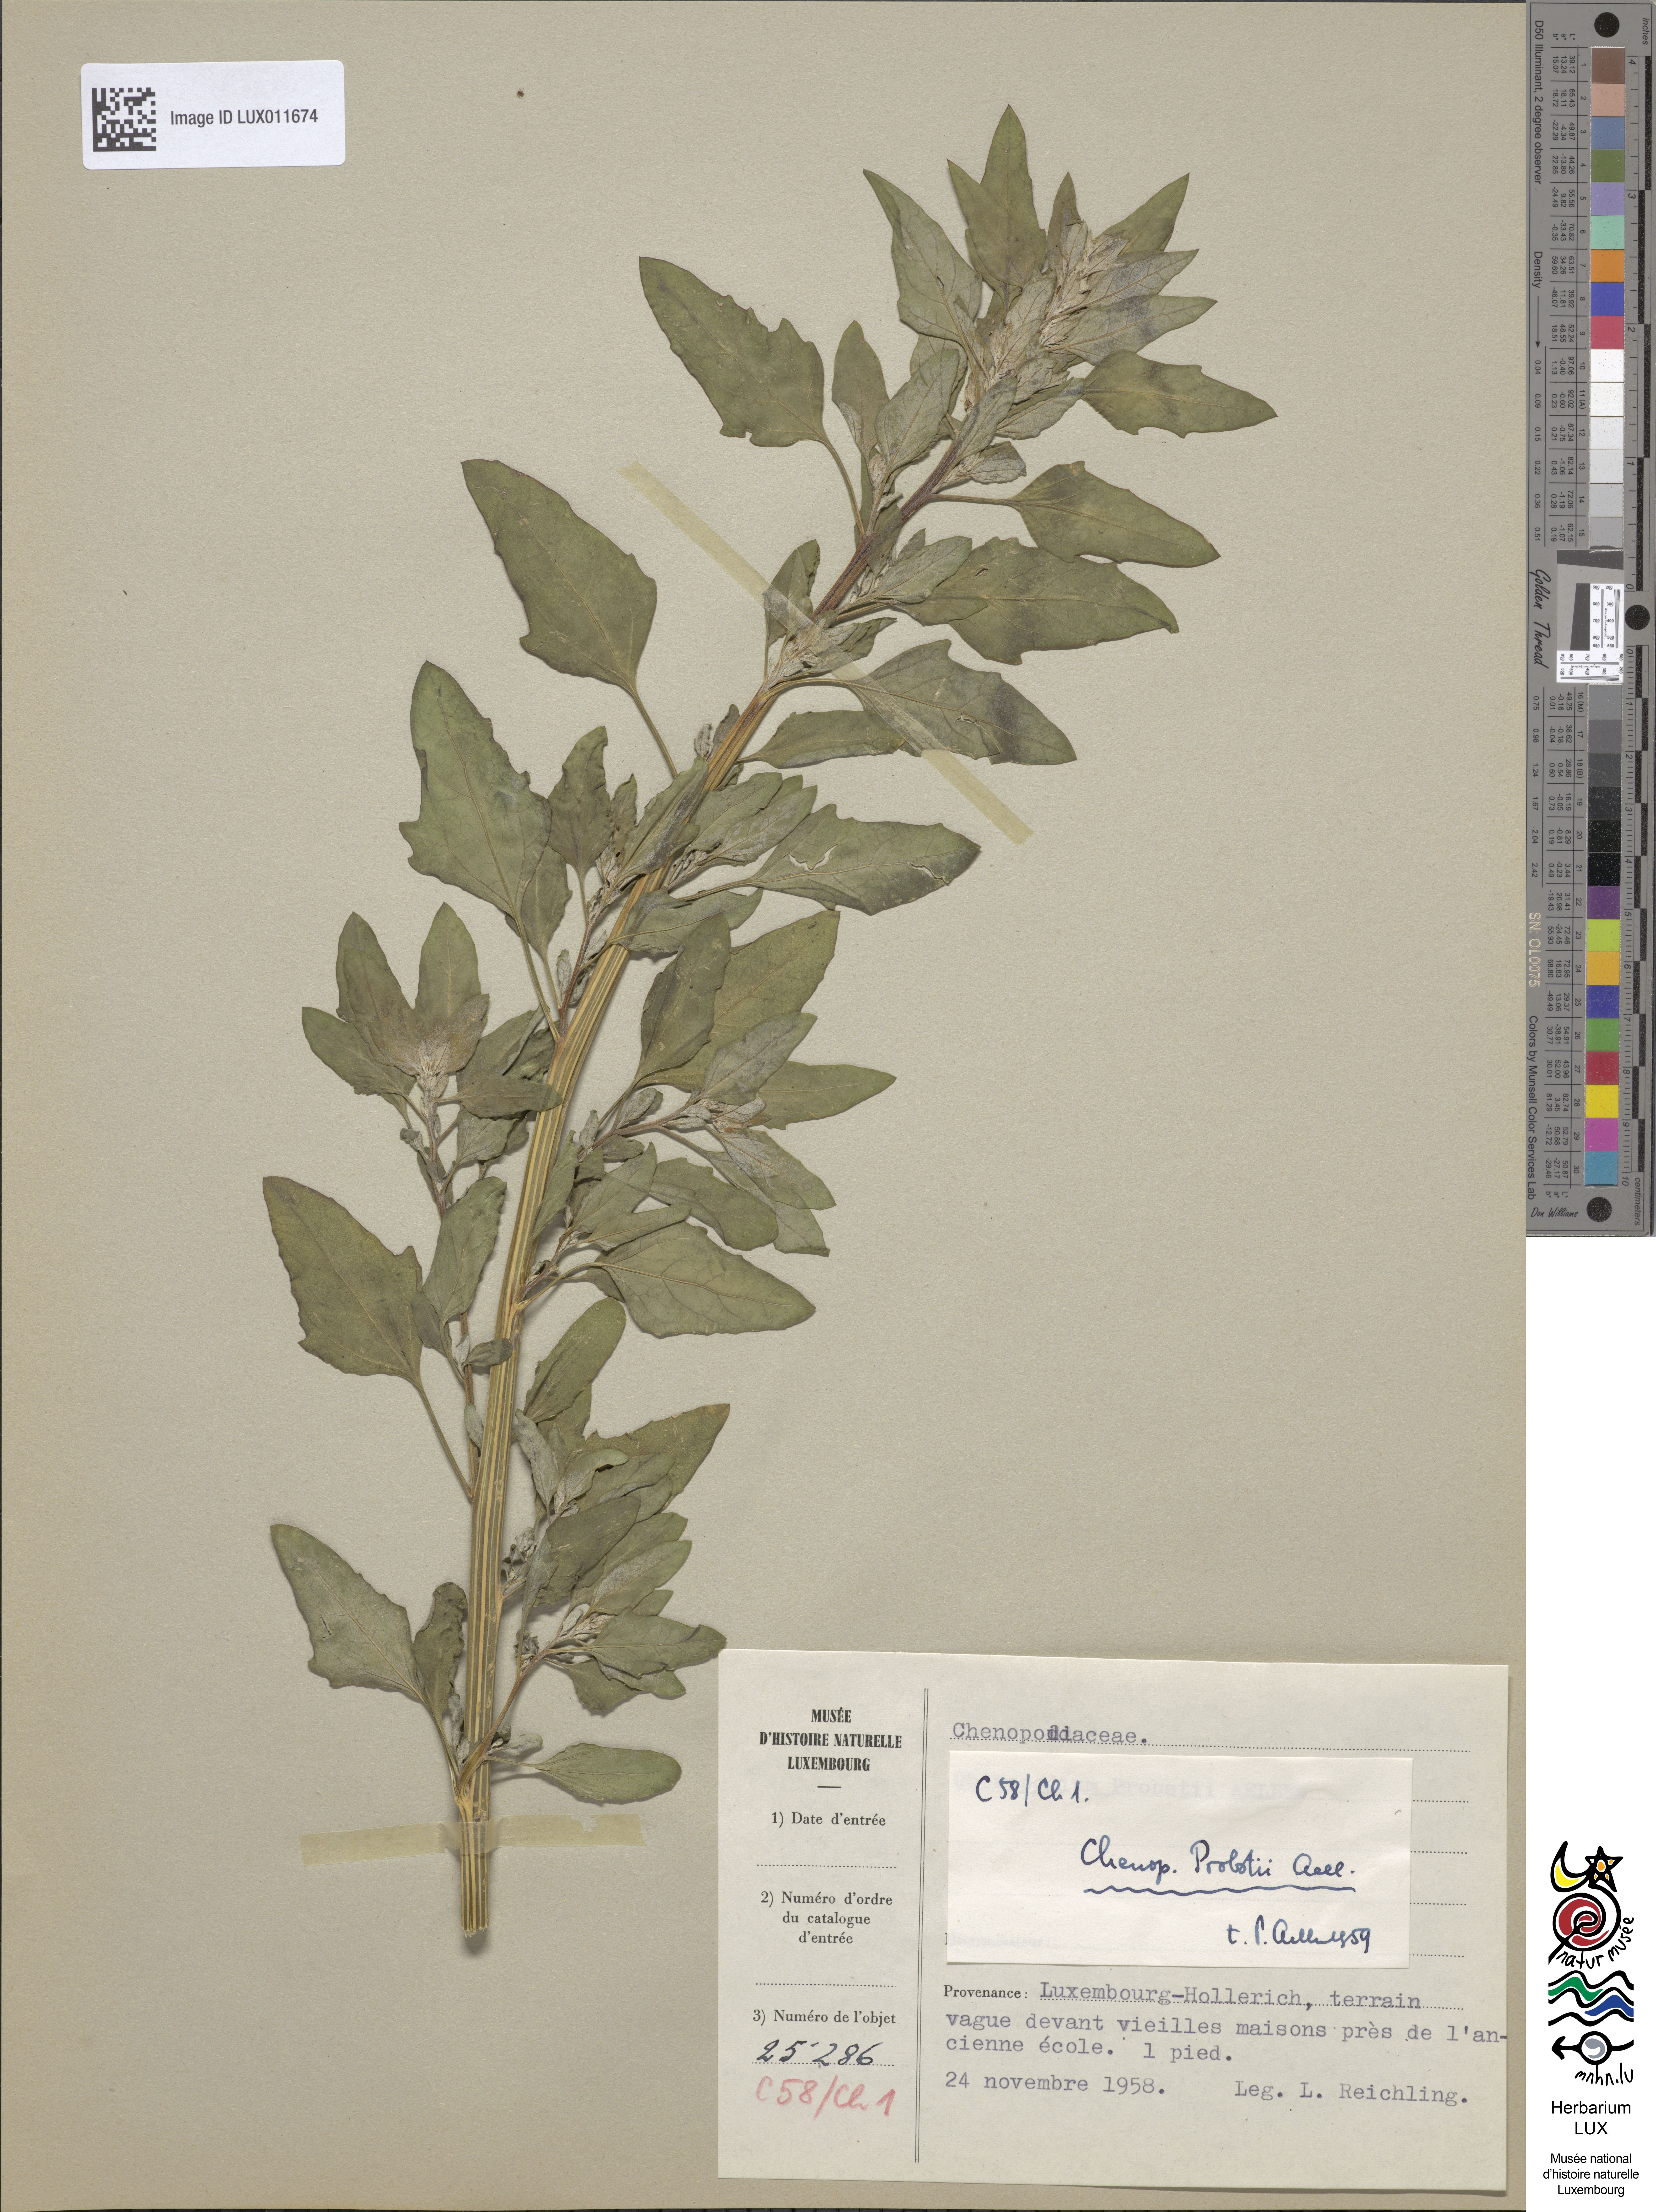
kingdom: Plantae
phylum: Tracheophyta
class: Magnoliopsida
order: Caryophyllales
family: Amaranthaceae
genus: Chenopodium
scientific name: Chenopodium probstii
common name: Probst's goosefoot
